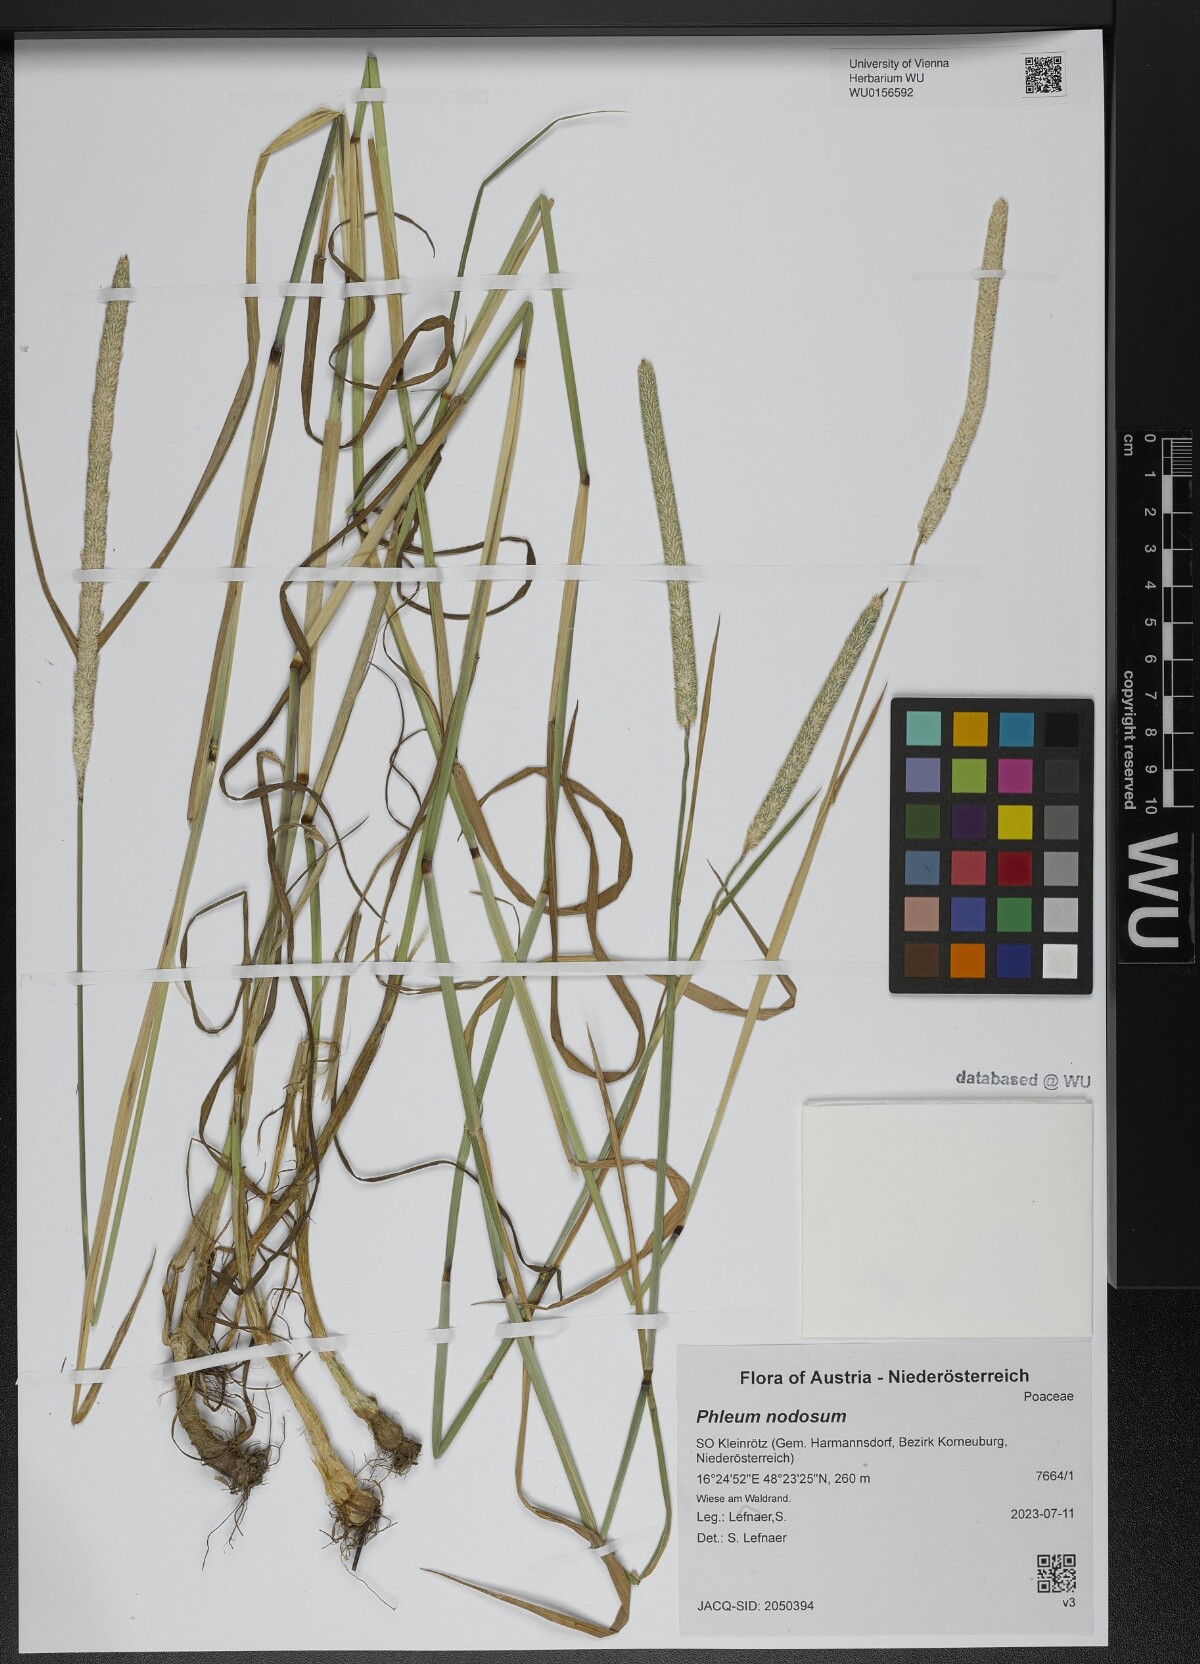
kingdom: Plantae
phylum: Tracheophyta
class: Liliopsida
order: Poales
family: Poaceae
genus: Phleum
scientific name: Phleum pratense
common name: Timothy grass
